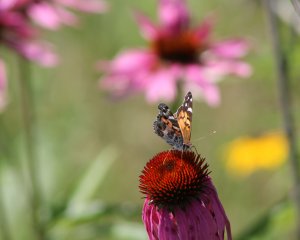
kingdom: Animalia
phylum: Arthropoda
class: Insecta
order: Lepidoptera
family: Nymphalidae
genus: Vanessa
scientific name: Vanessa virginiensis
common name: American Lady
